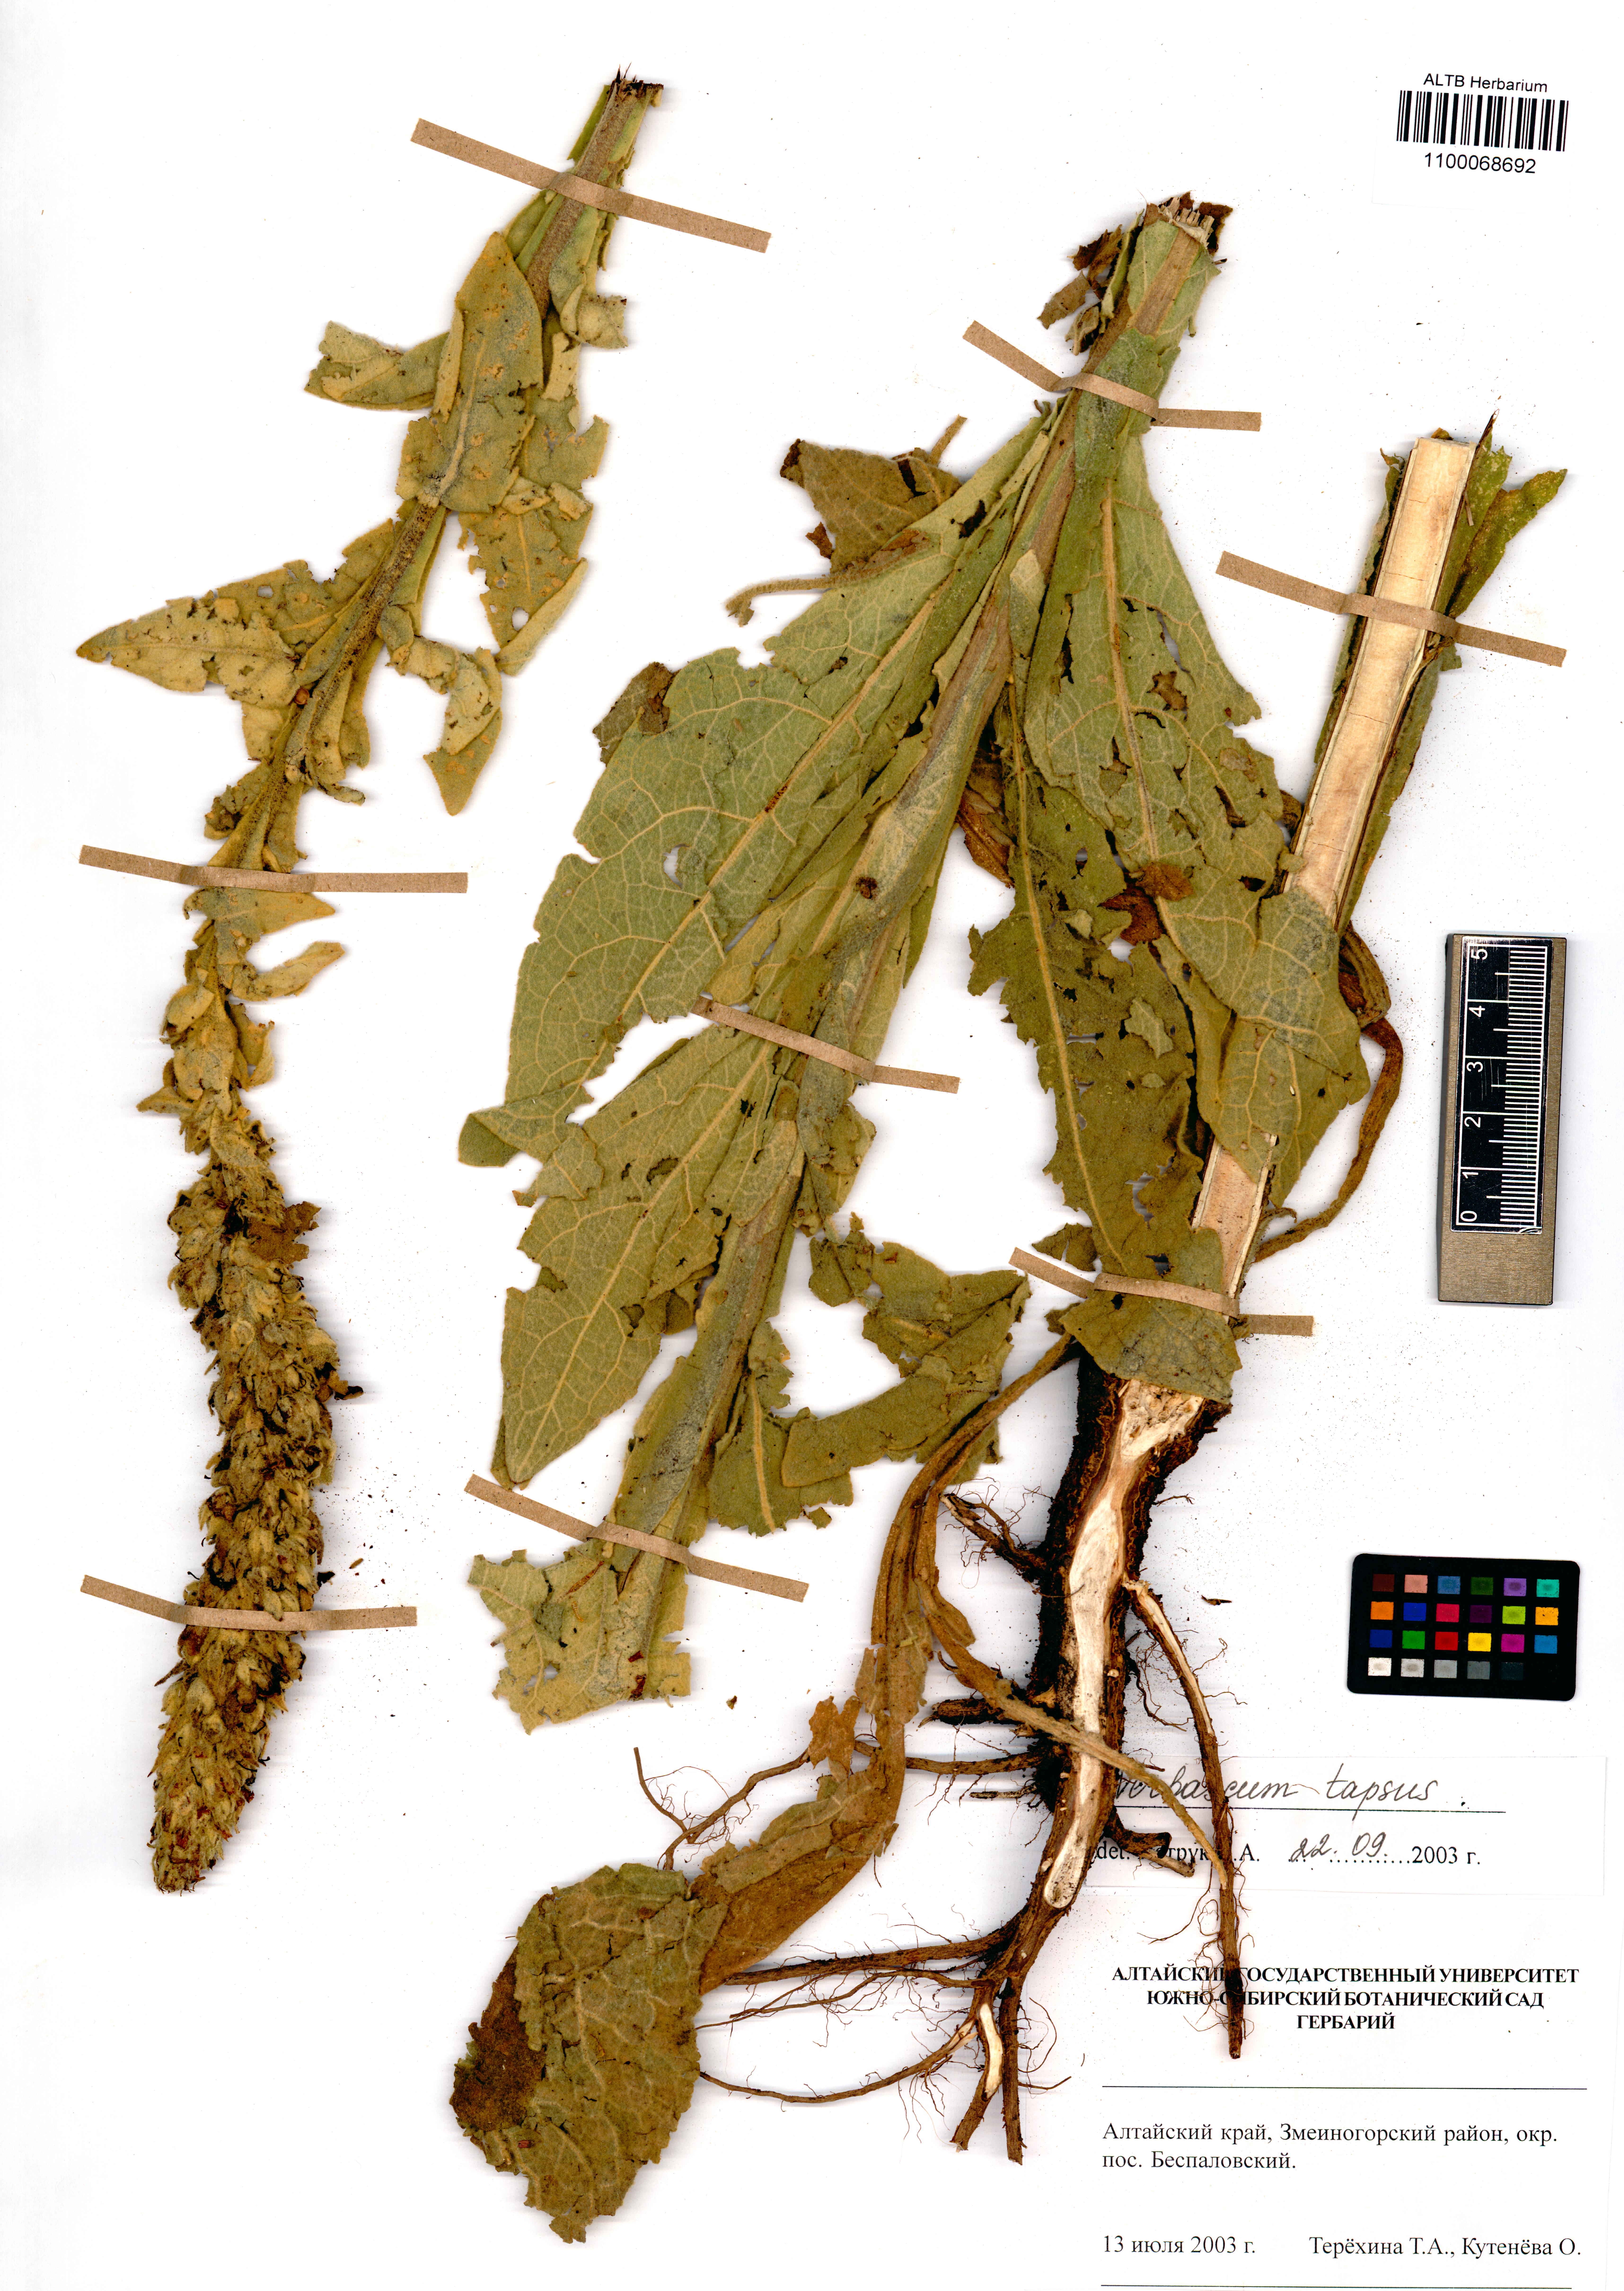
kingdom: Plantae
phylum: Tracheophyta
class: Magnoliopsida
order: Lamiales
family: Scrophulariaceae
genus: Verbascum
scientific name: Verbascum thapsus
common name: Common mullein
